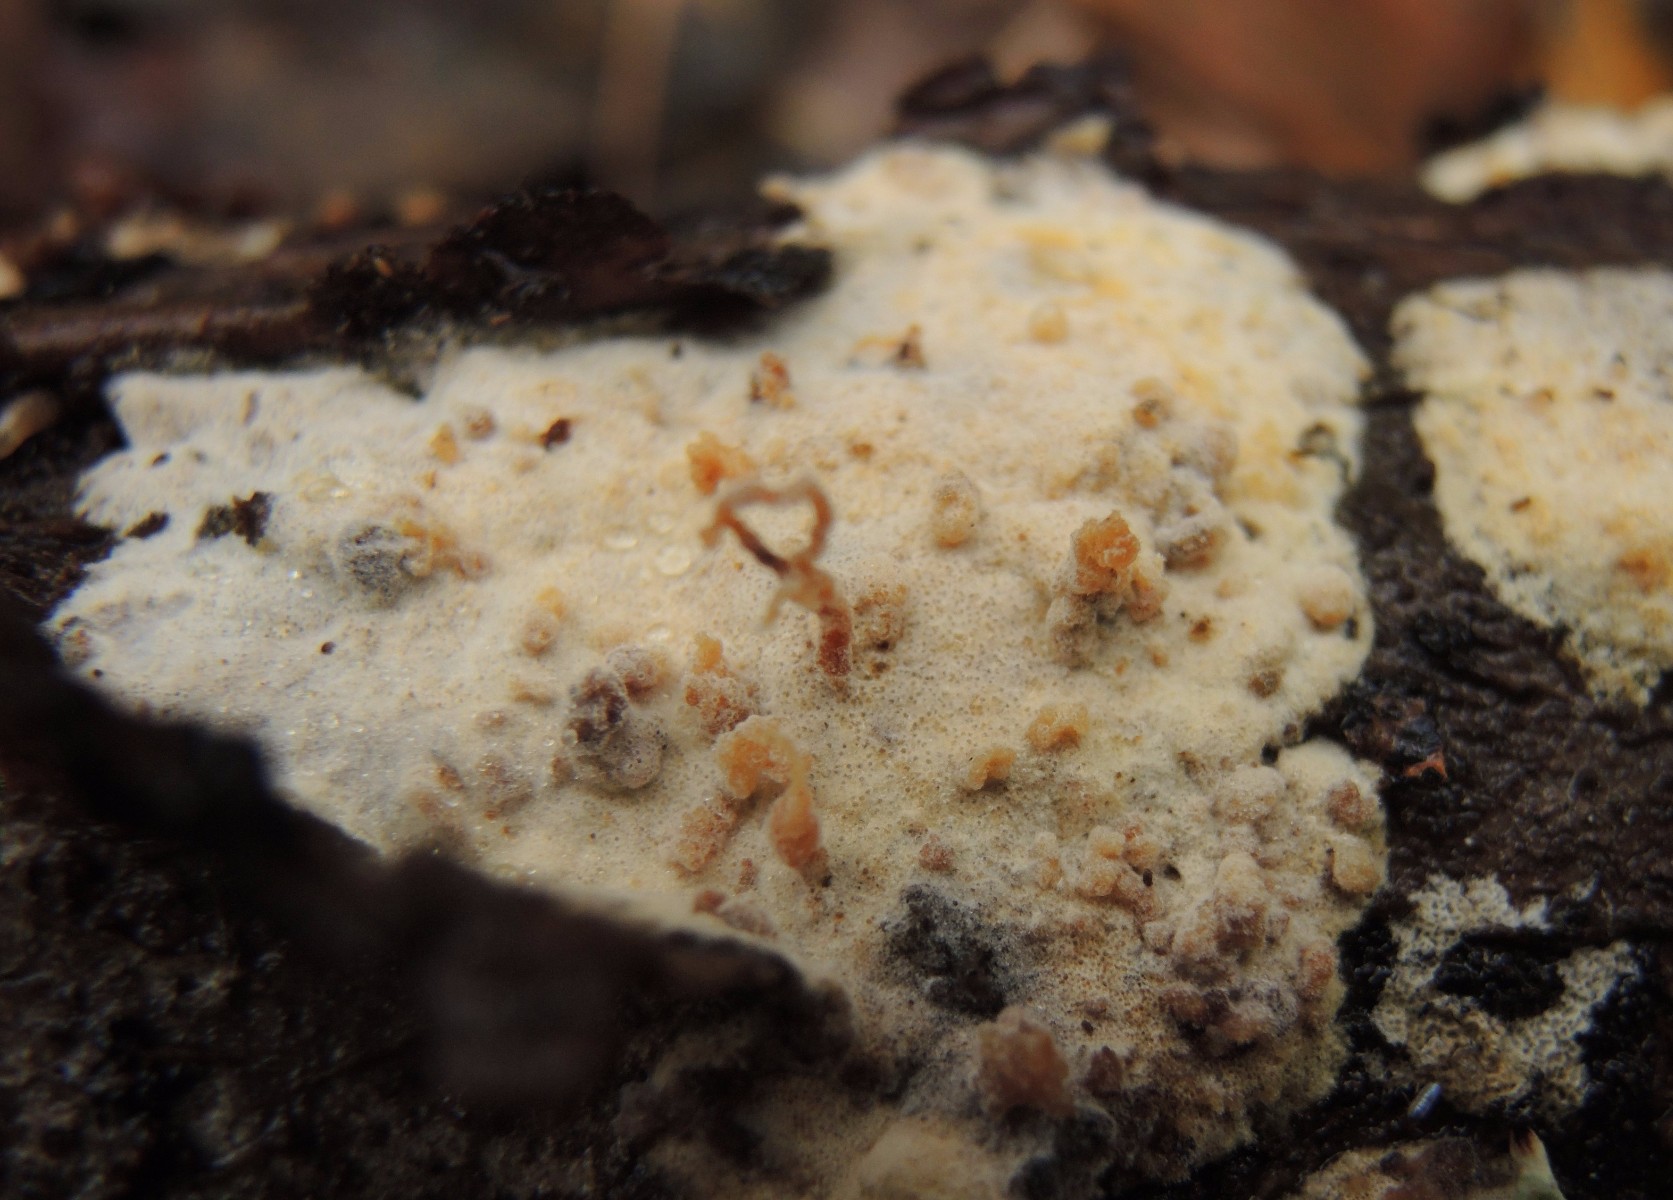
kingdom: Fungi
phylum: Ascomycota
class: Sordariomycetes
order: Hypocreales
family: Hypocreaceae
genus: Protocrea
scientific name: Protocrea farinosa
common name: krystalpore-kødkerne
